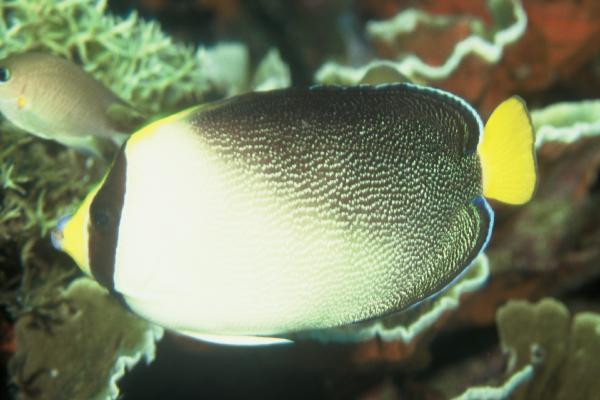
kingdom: Animalia
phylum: Chordata
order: Perciformes
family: Pomacanthidae
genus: Chaetodontoplus
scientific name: Chaetodontoplus mesoleucus
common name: Vermiculated angelfish
